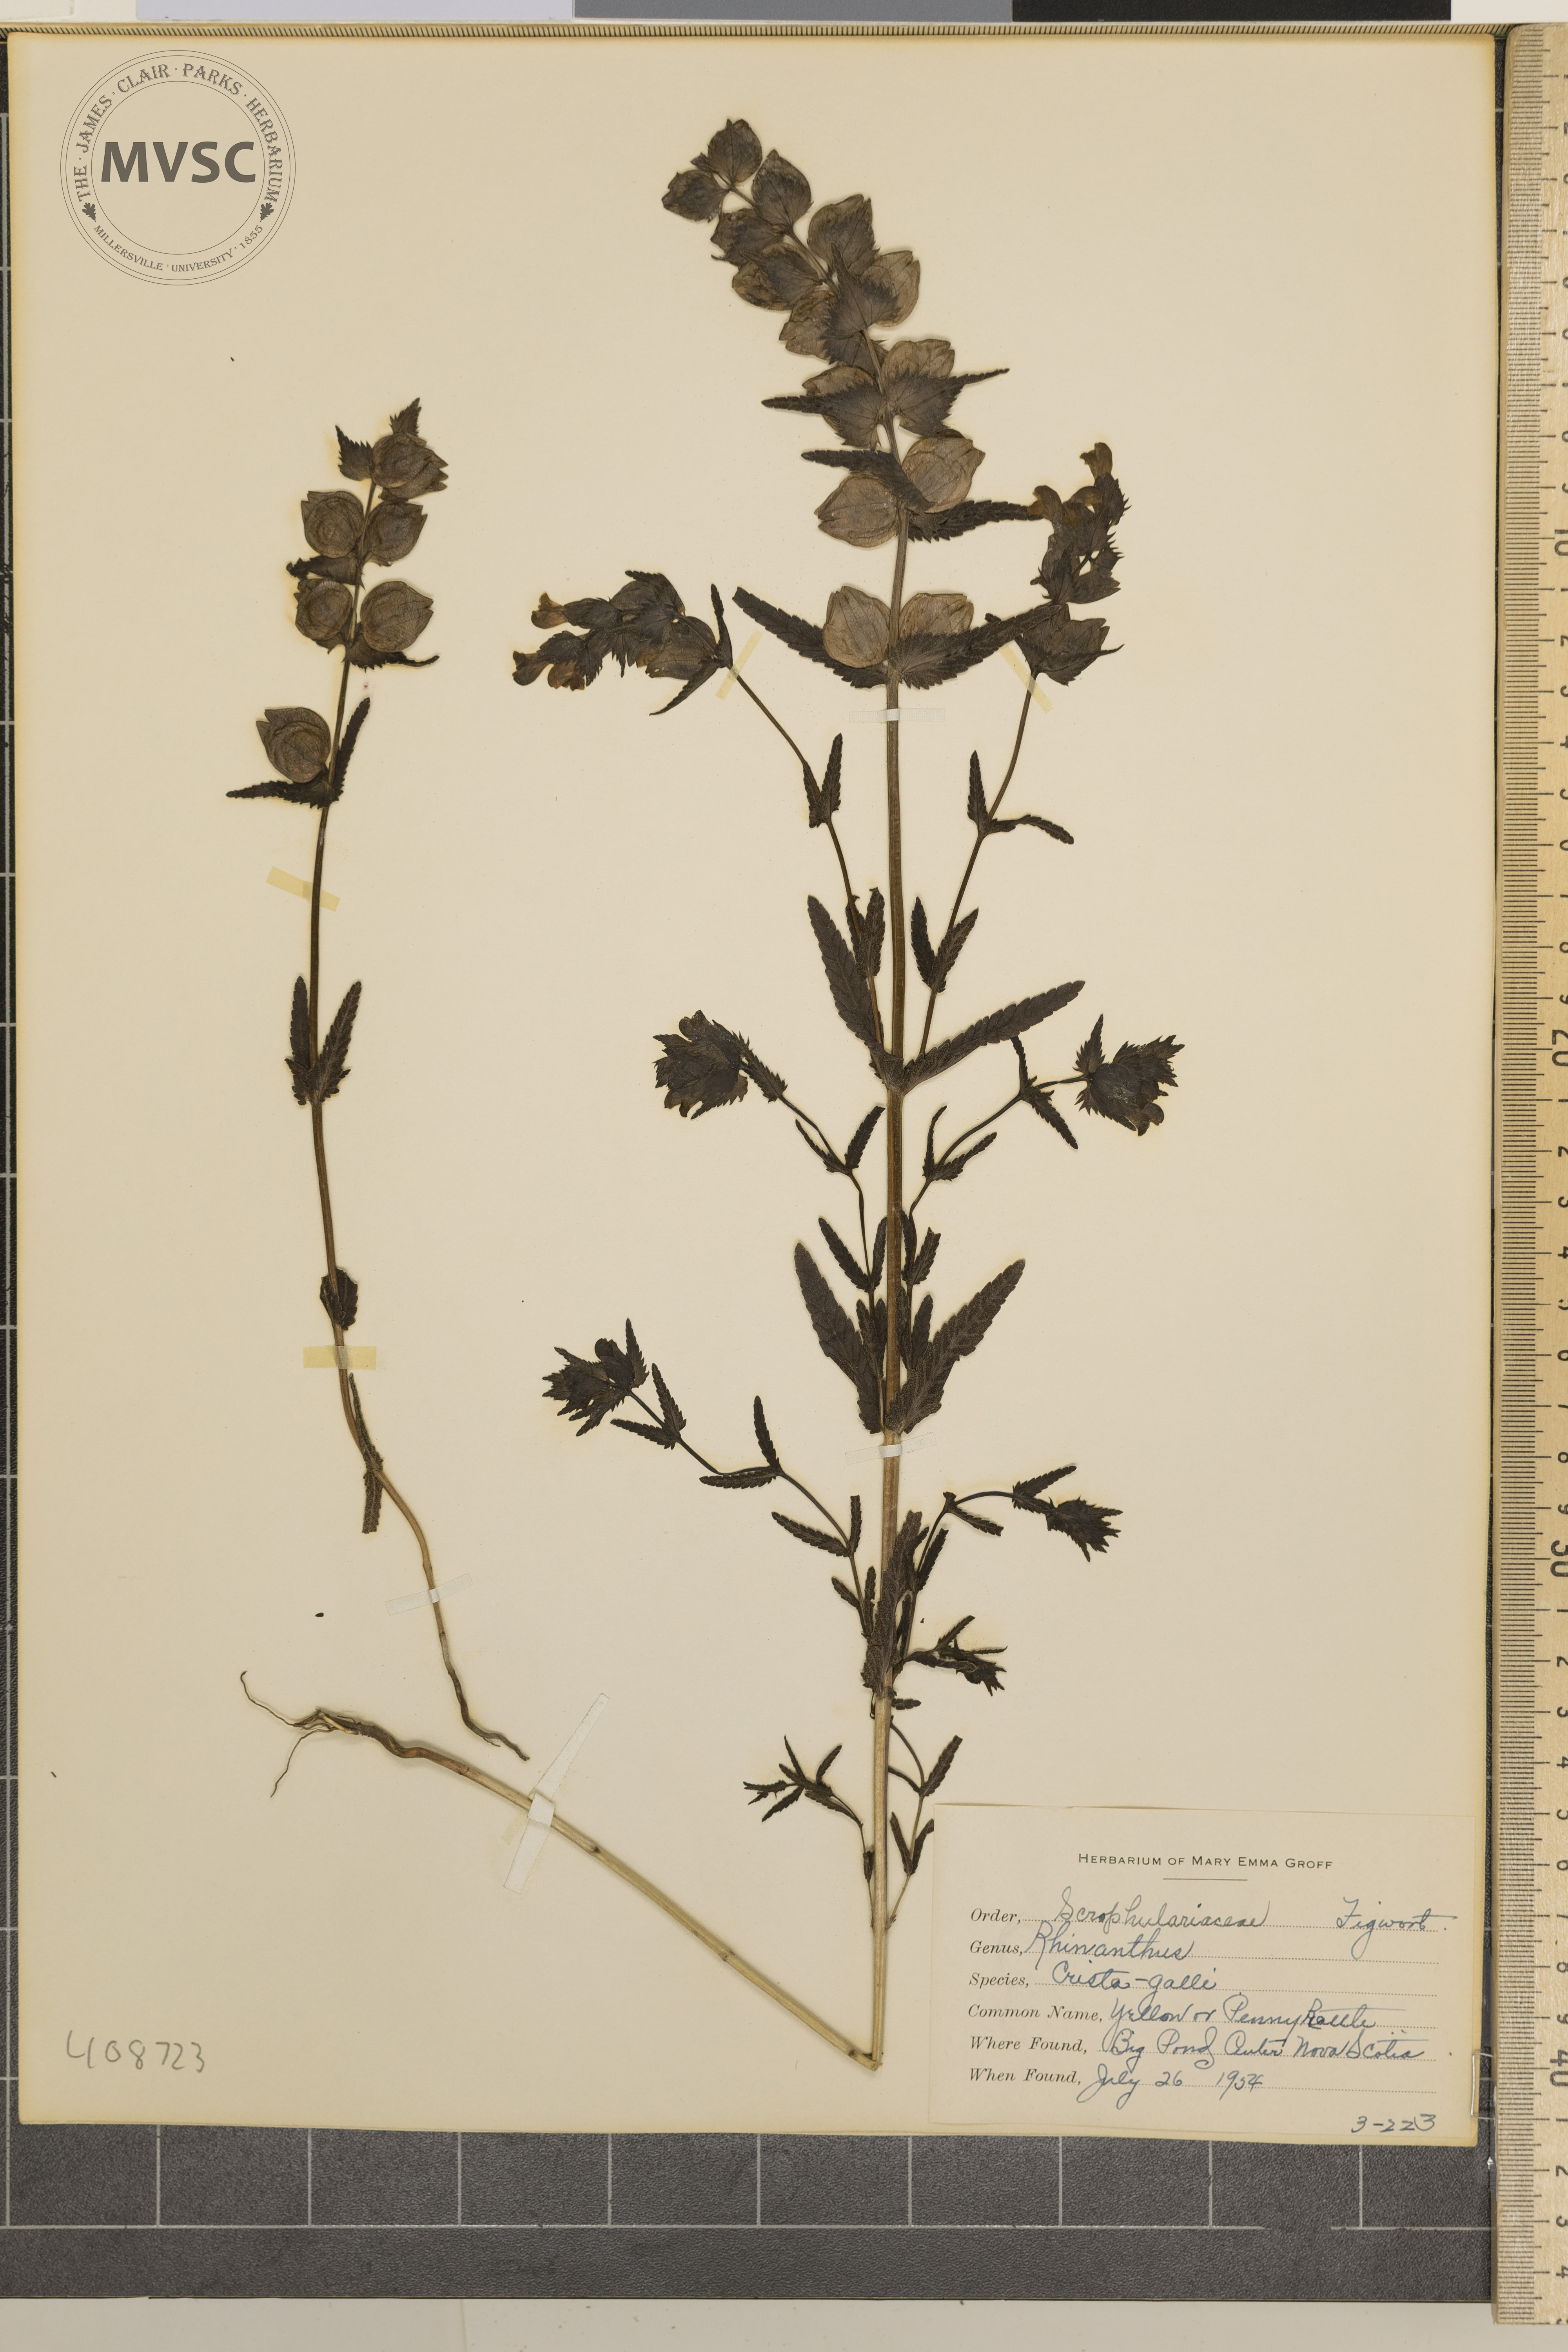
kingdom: Plantae
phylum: Tracheophyta
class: Magnoliopsida
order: Lamiales
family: Orobanchaceae
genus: Rhinanthus
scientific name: Rhinanthus
